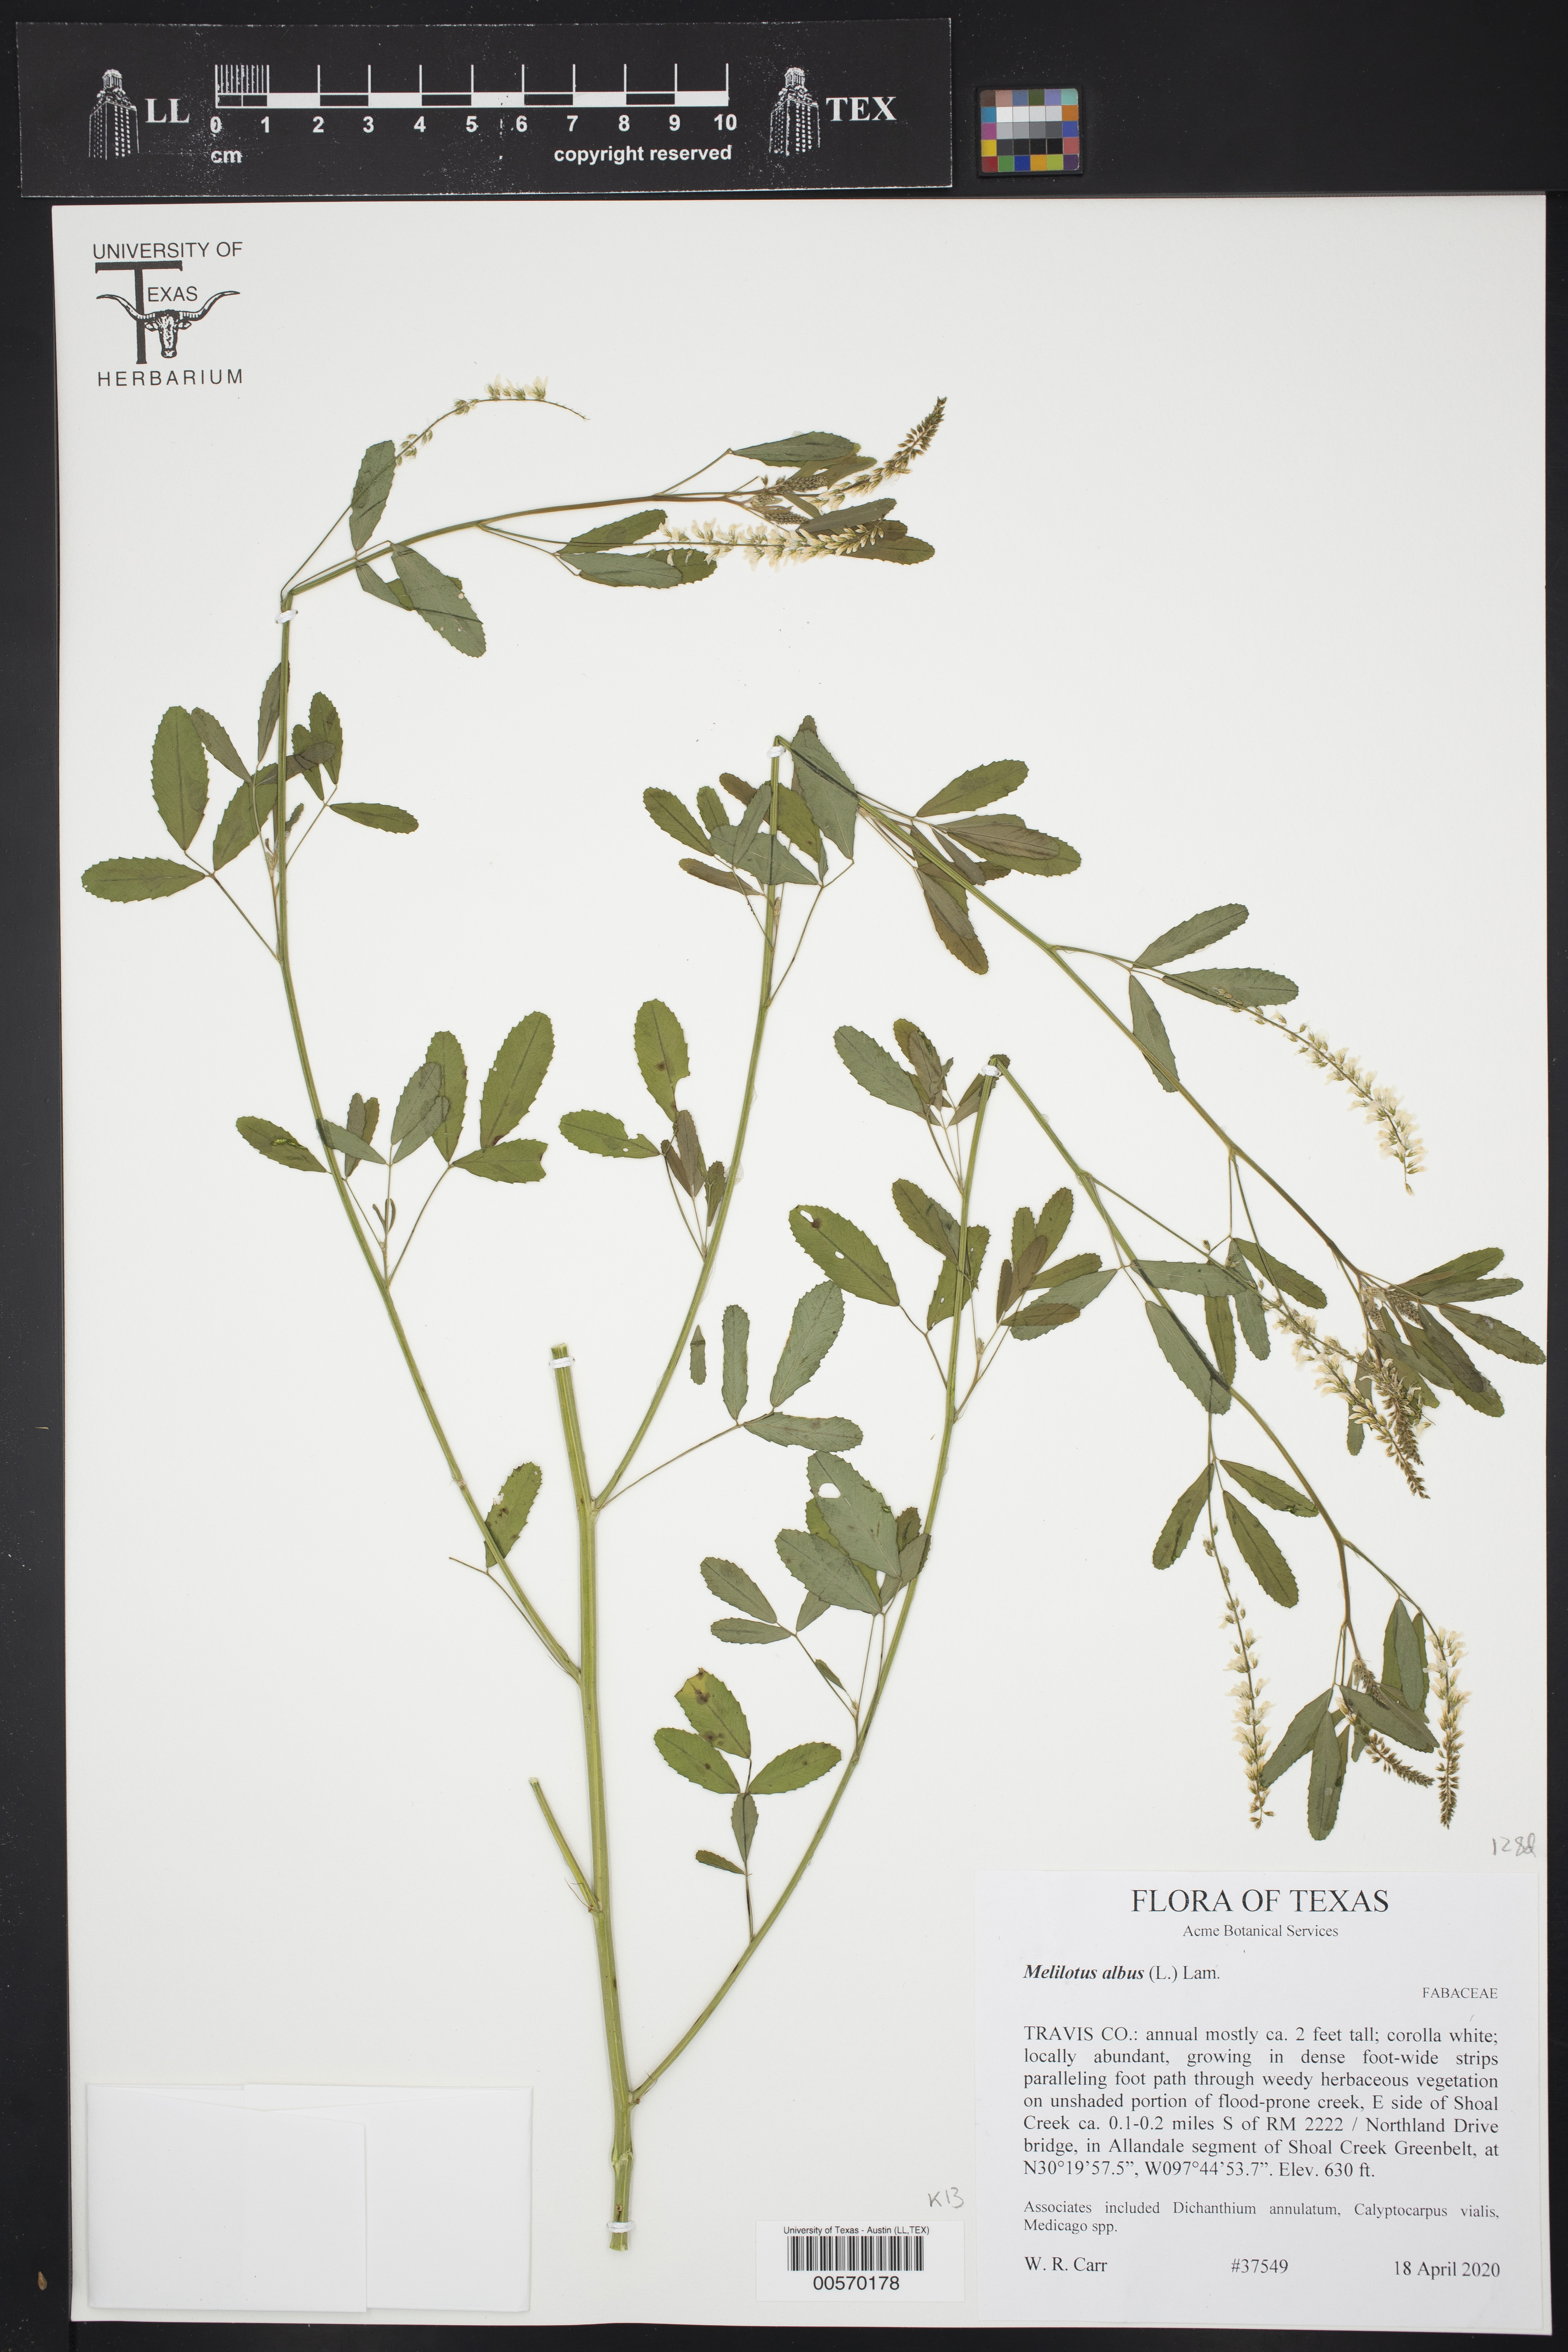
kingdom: Plantae
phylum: Tracheophyta
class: Magnoliopsida
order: Fabales
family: Fabaceae
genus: Melilotus
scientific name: Melilotus albus
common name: White melilot
